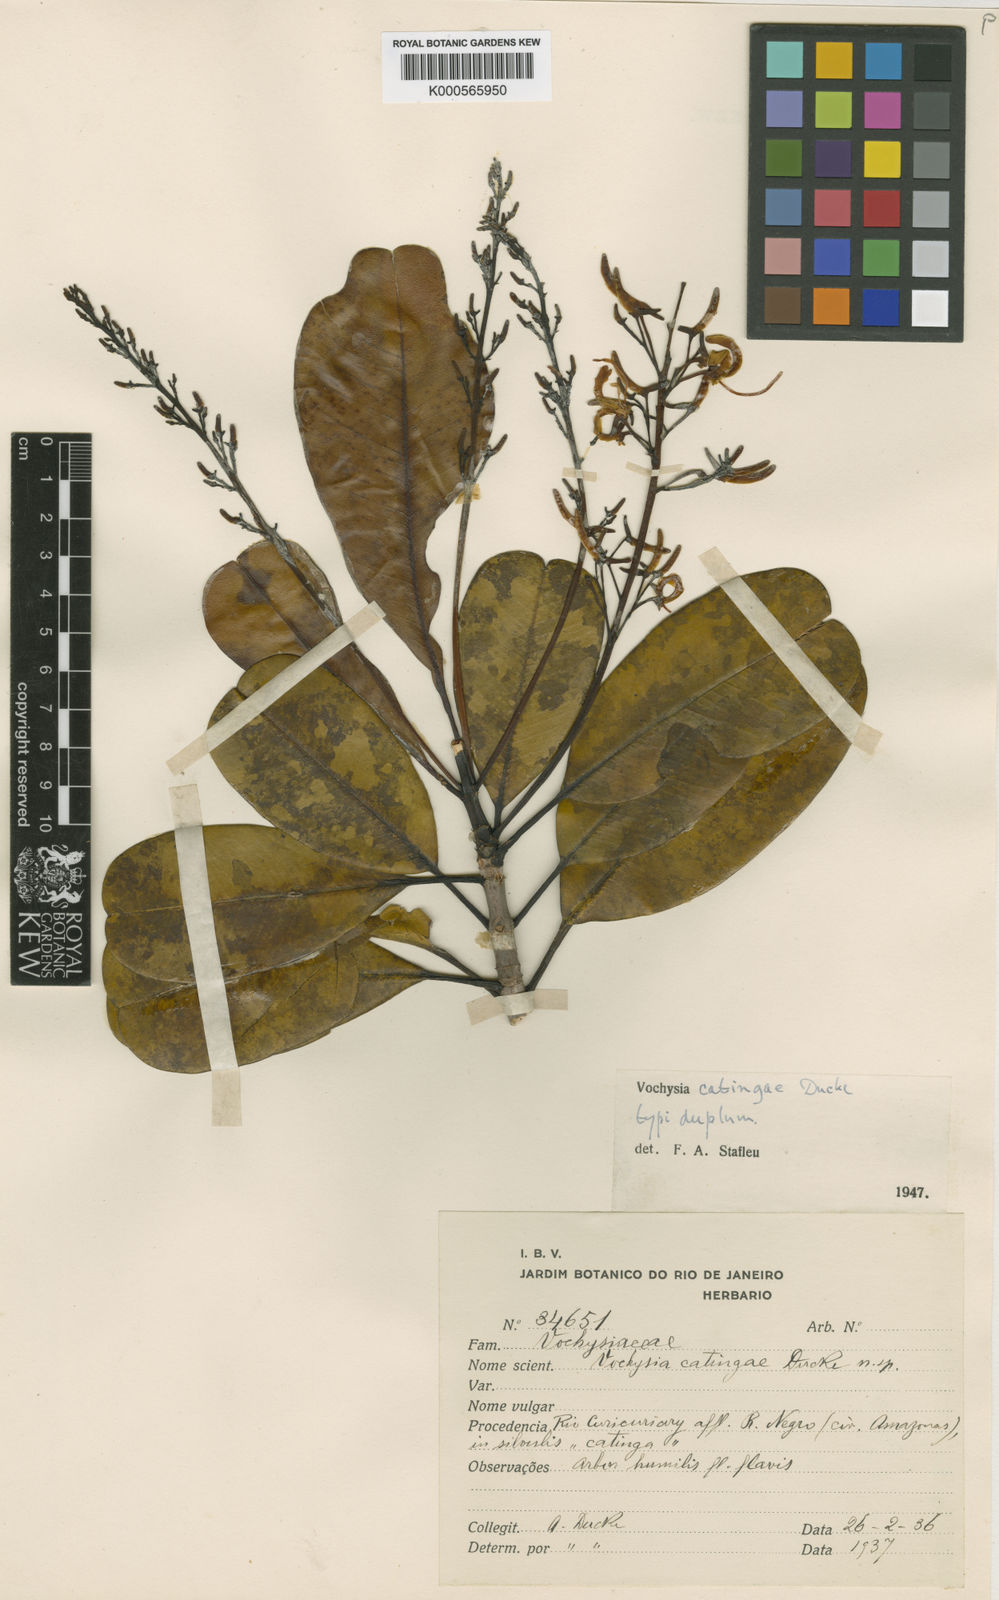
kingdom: Plantae
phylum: Tracheophyta
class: Magnoliopsida
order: Myrtales
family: Vochysiaceae
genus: Vochysia
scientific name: Vochysia catingae
